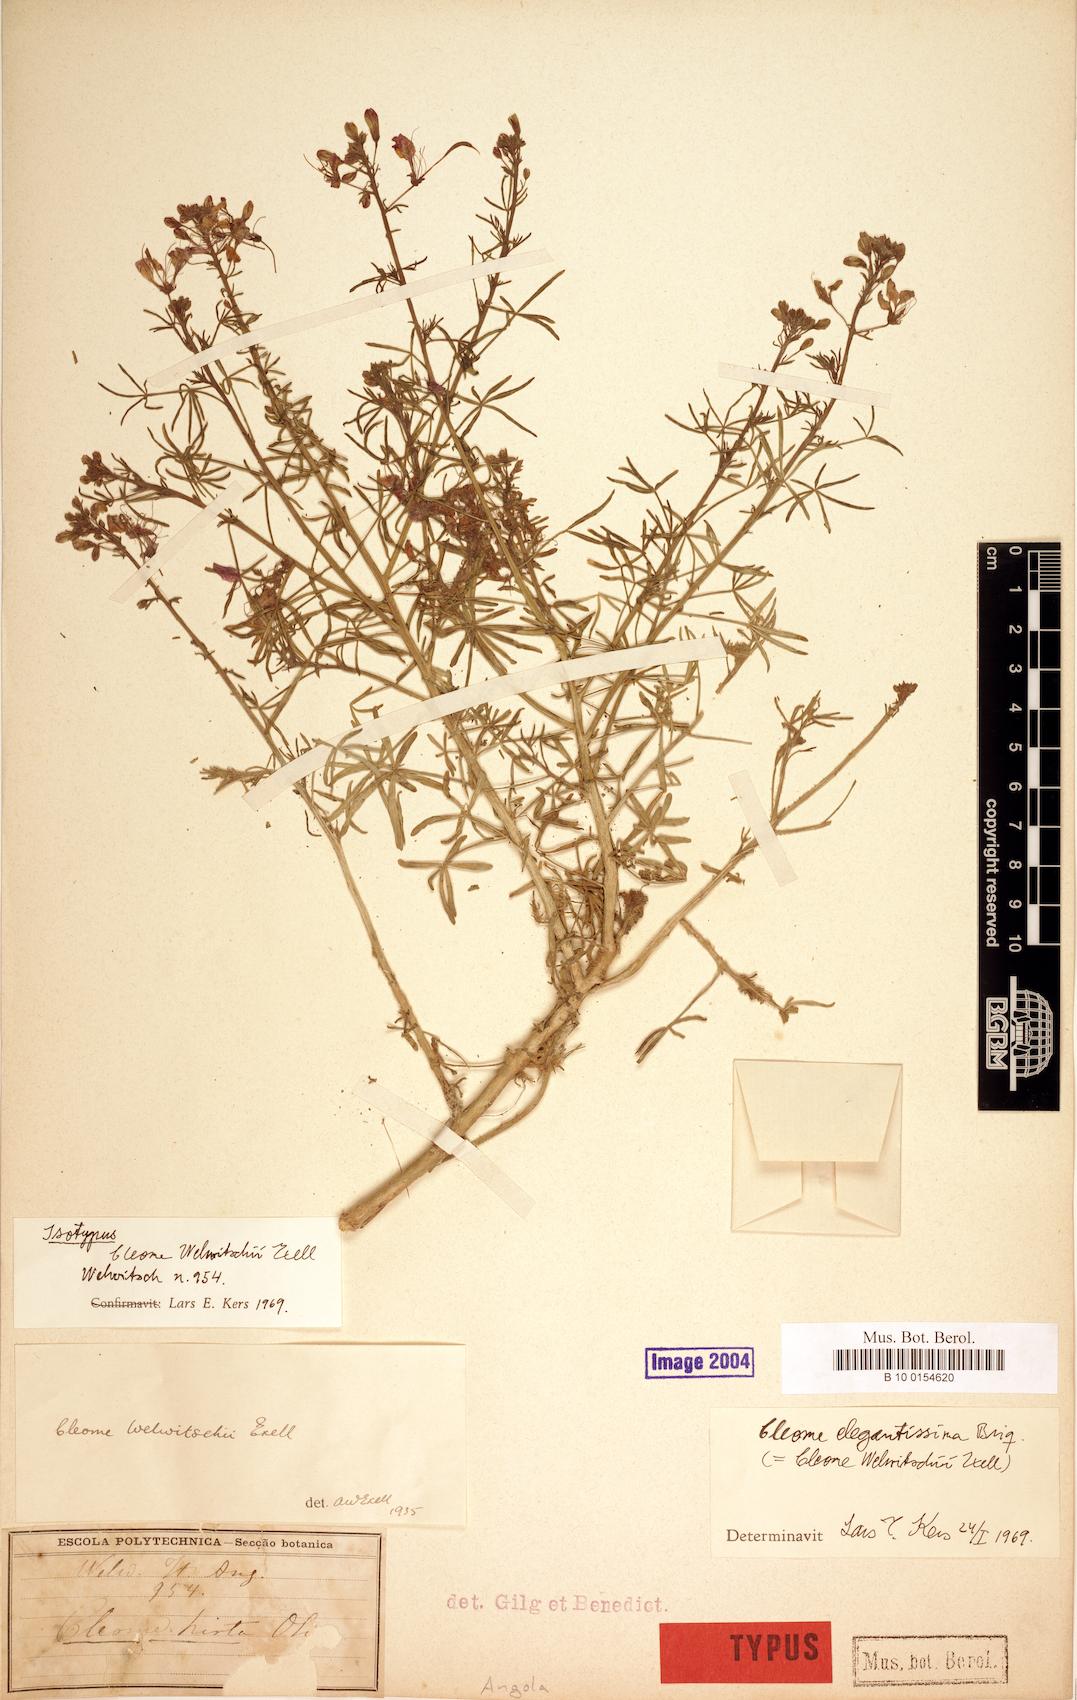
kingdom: Plantae
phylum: Tracheophyta
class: Magnoliopsida
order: Brassicales
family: Cleomaceae
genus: Sieruela
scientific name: Sieruela elegantissima
